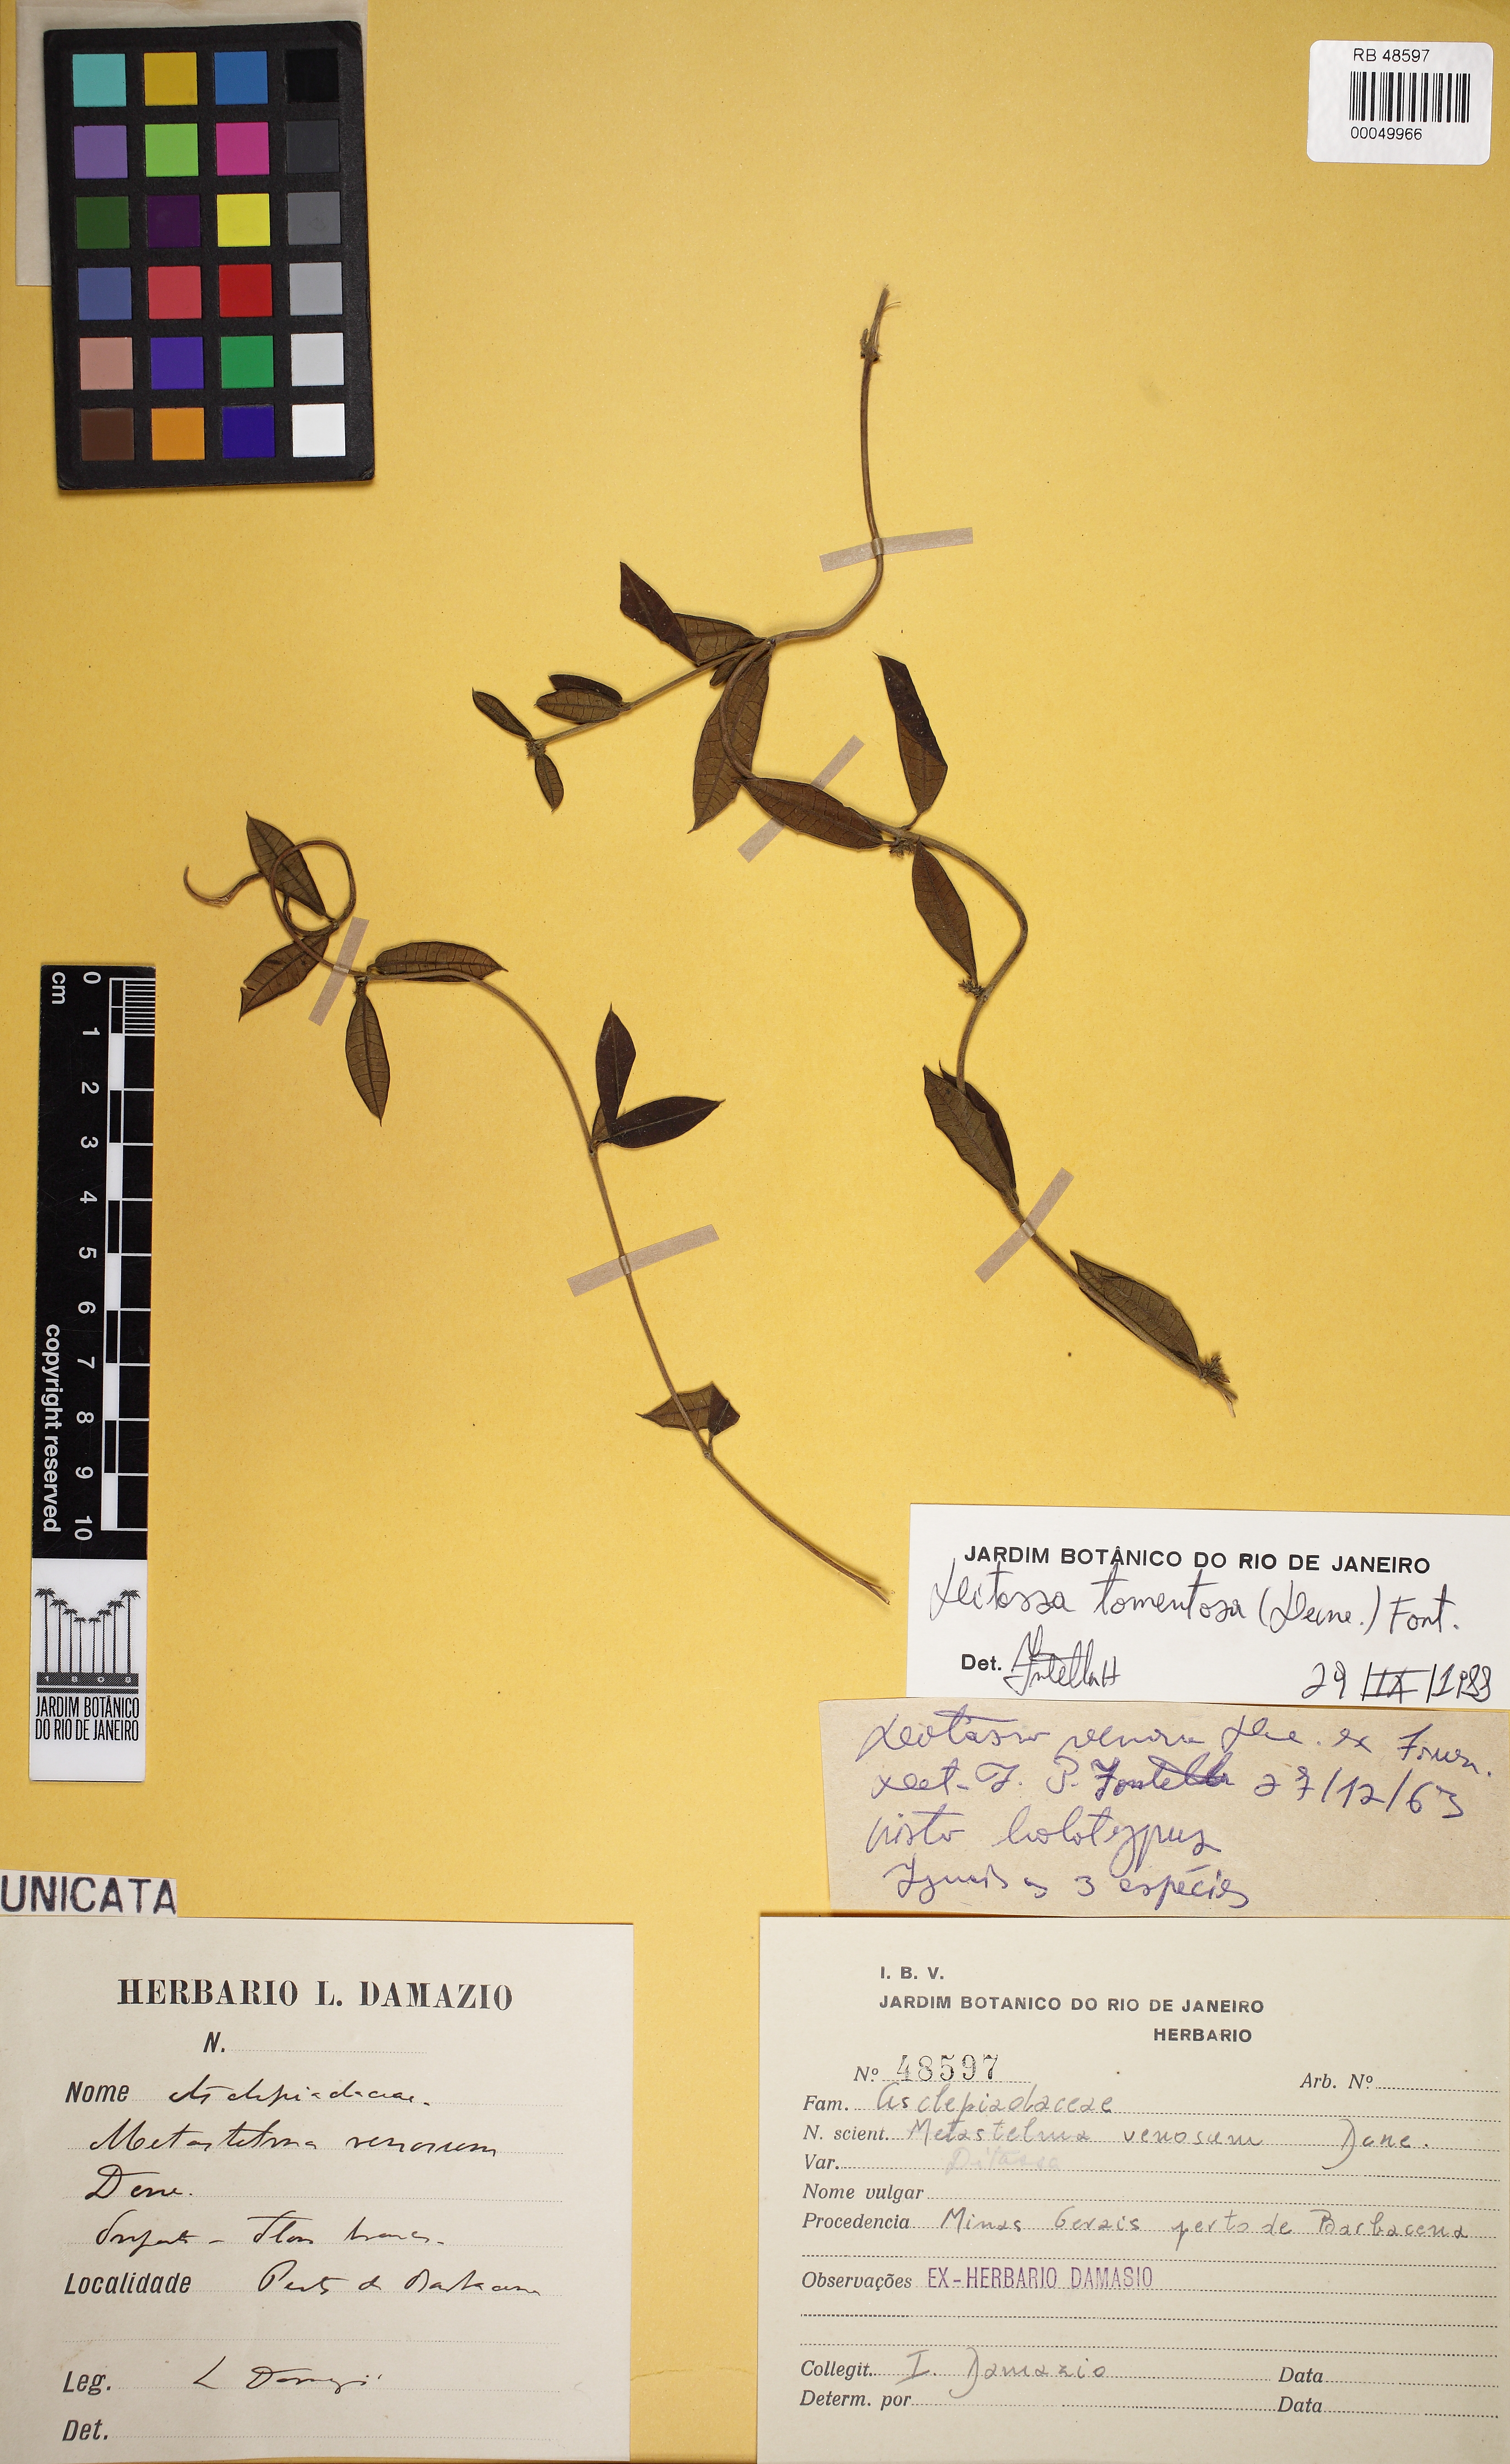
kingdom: Plantae
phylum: Tracheophyta
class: Magnoliopsida
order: Gentianales
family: Apocynaceae
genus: Ditassa
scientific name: Ditassa tomentosa
